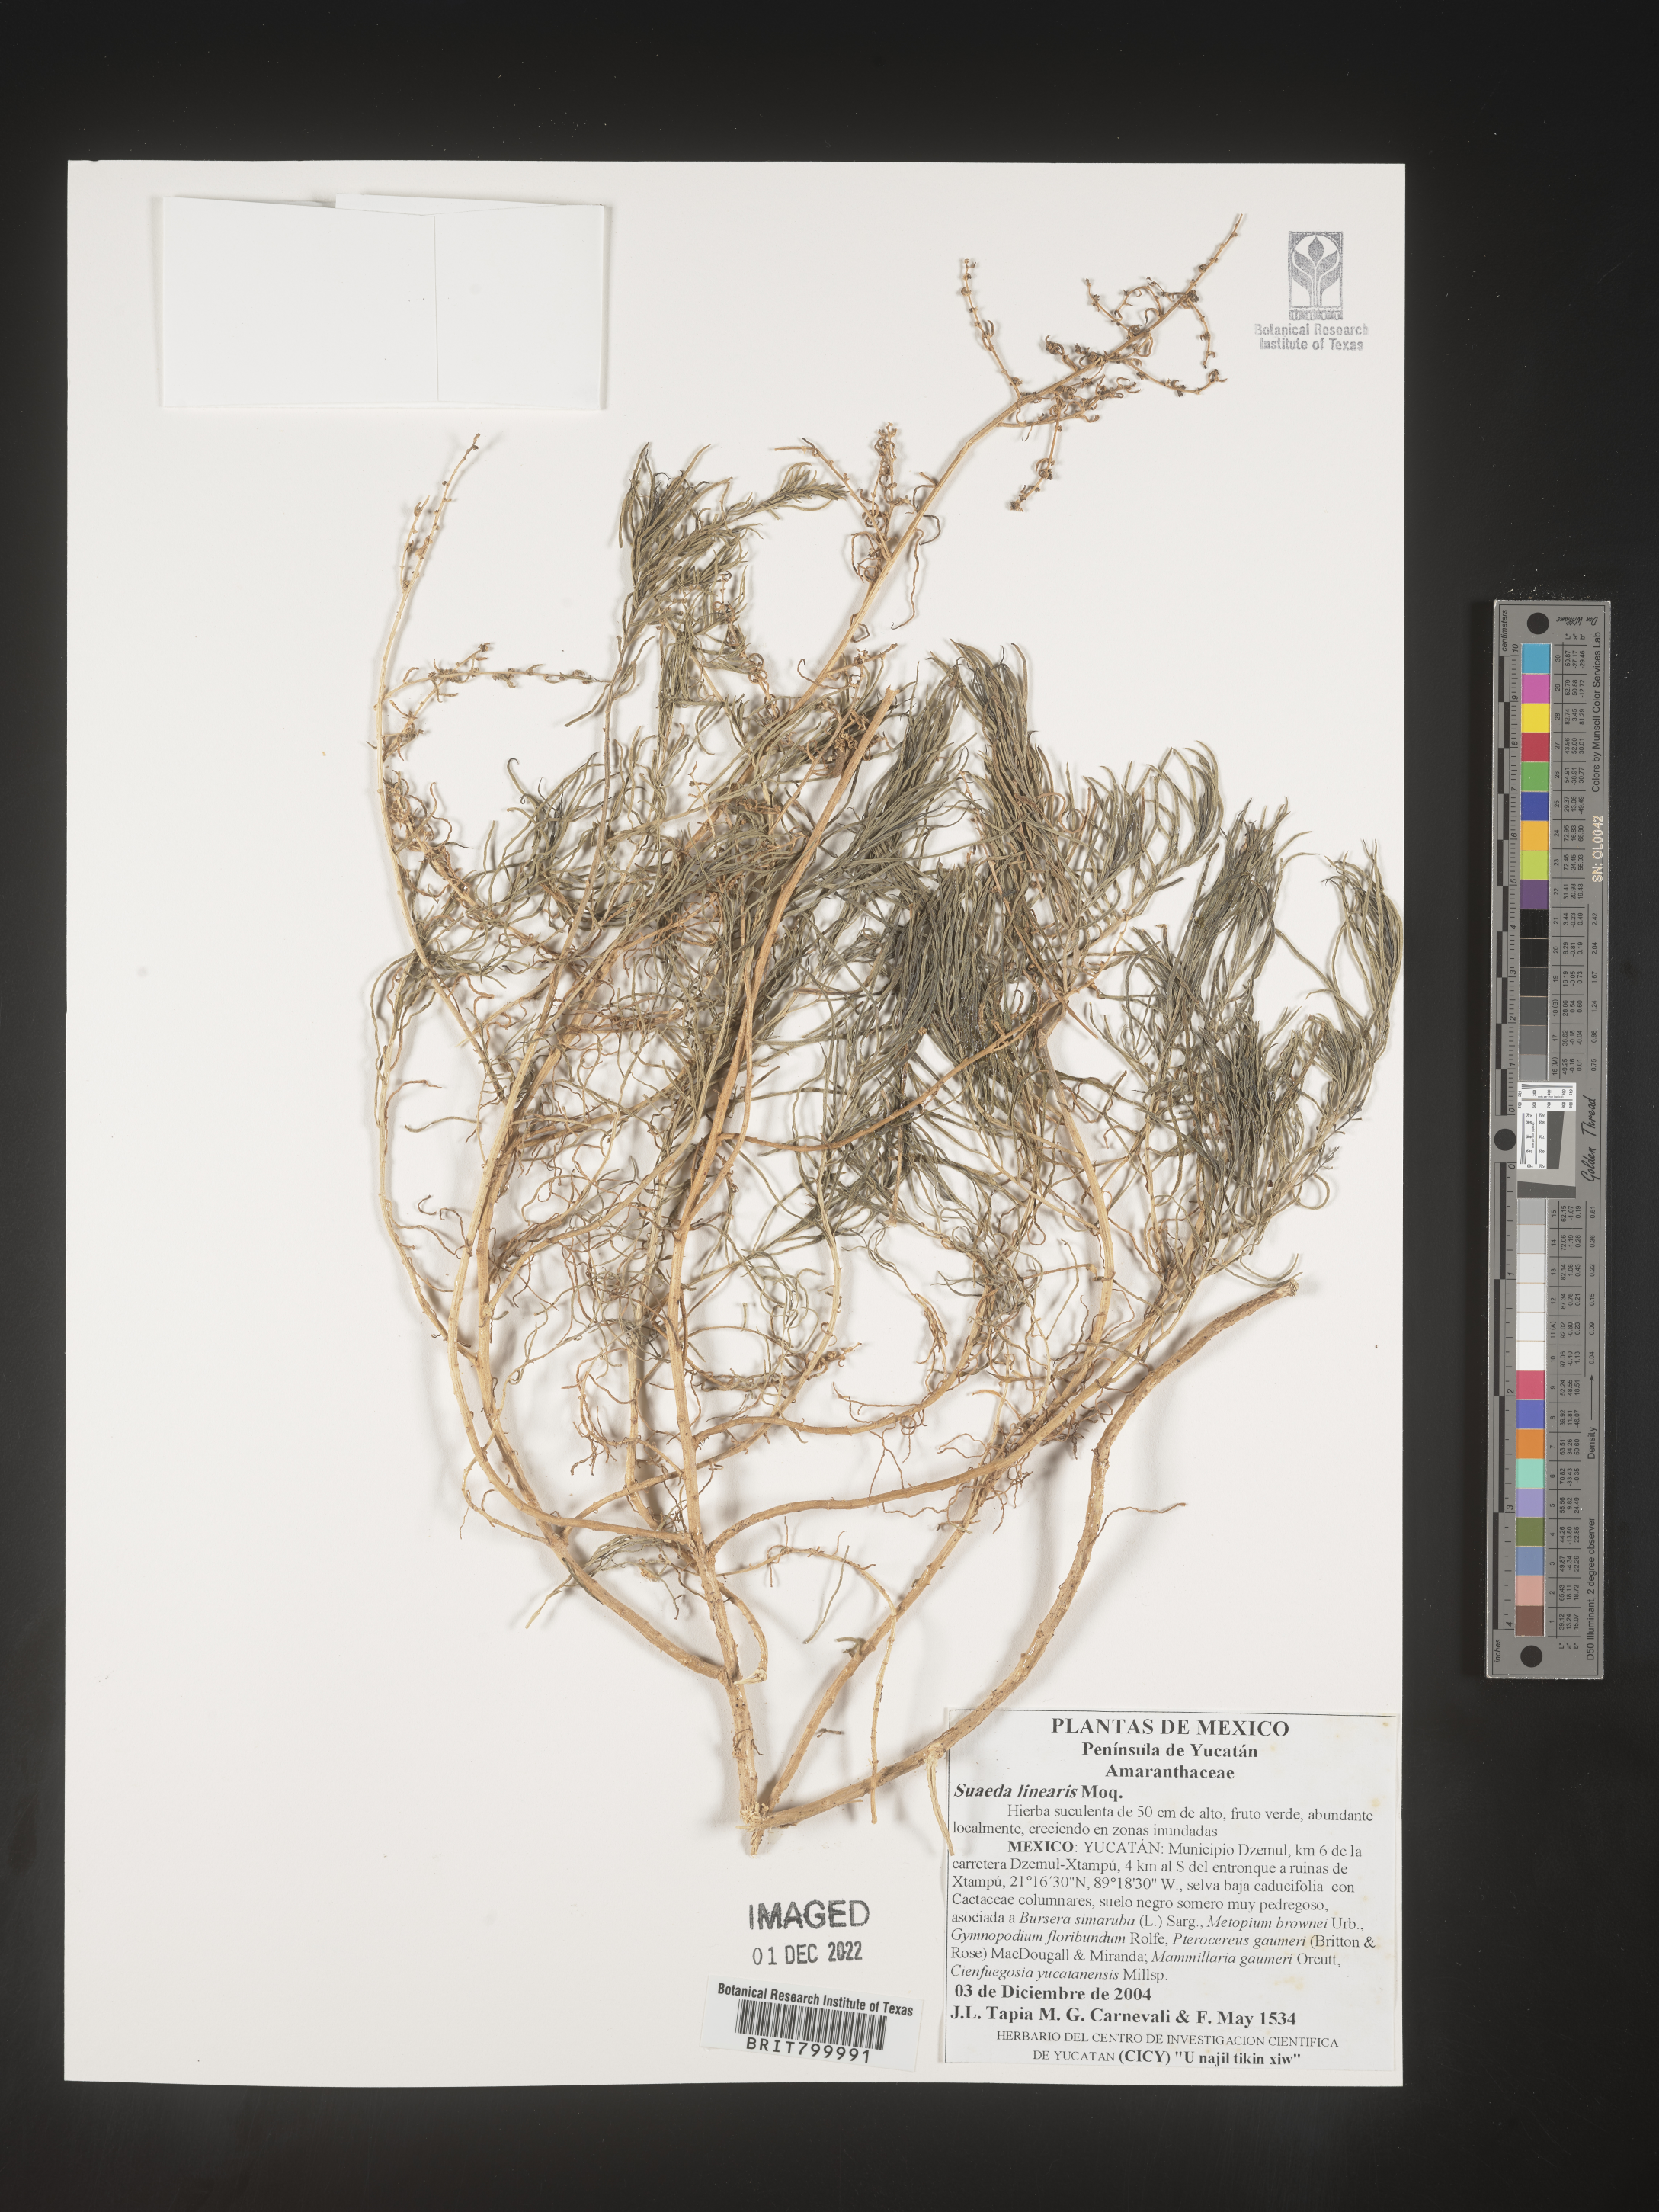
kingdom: Plantae
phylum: Tracheophyta
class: Magnoliopsida
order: Caryophyllales
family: Amaranthaceae
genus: Suaeda
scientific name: Suaeda
